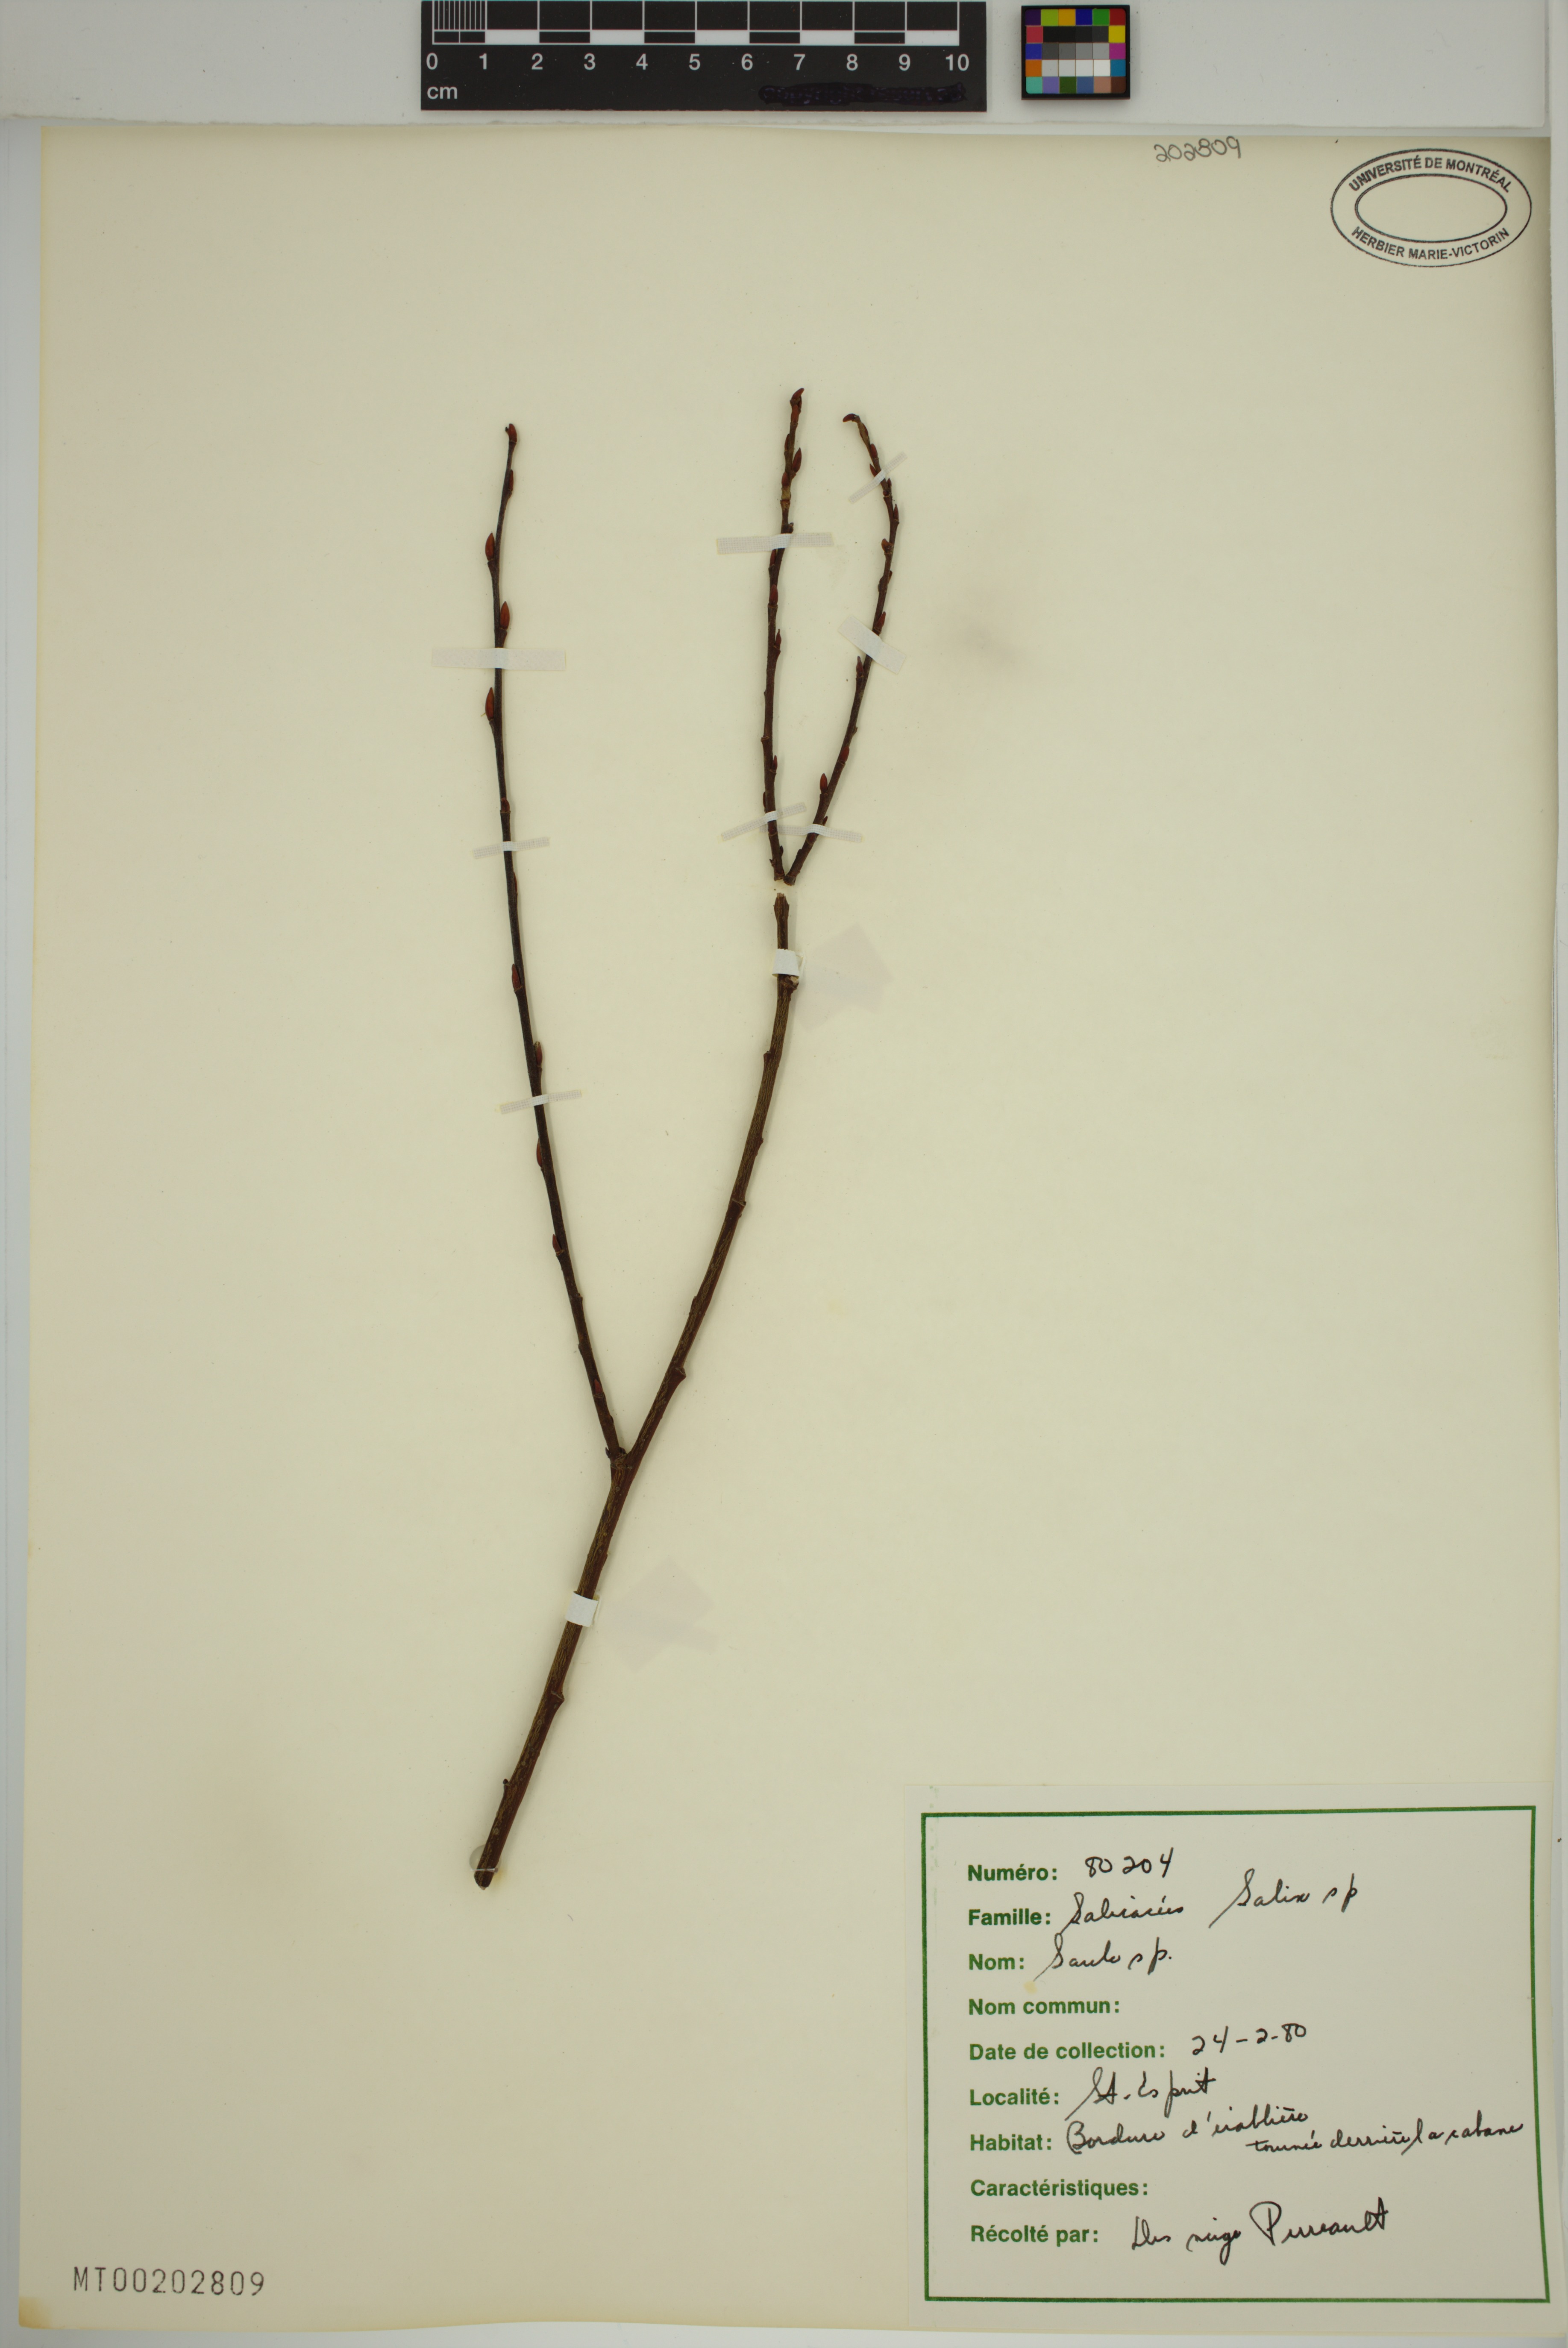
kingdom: Plantae
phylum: Tracheophyta
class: Magnoliopsida
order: Malpighiales
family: Salicaceae
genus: Salix
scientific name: Salix
